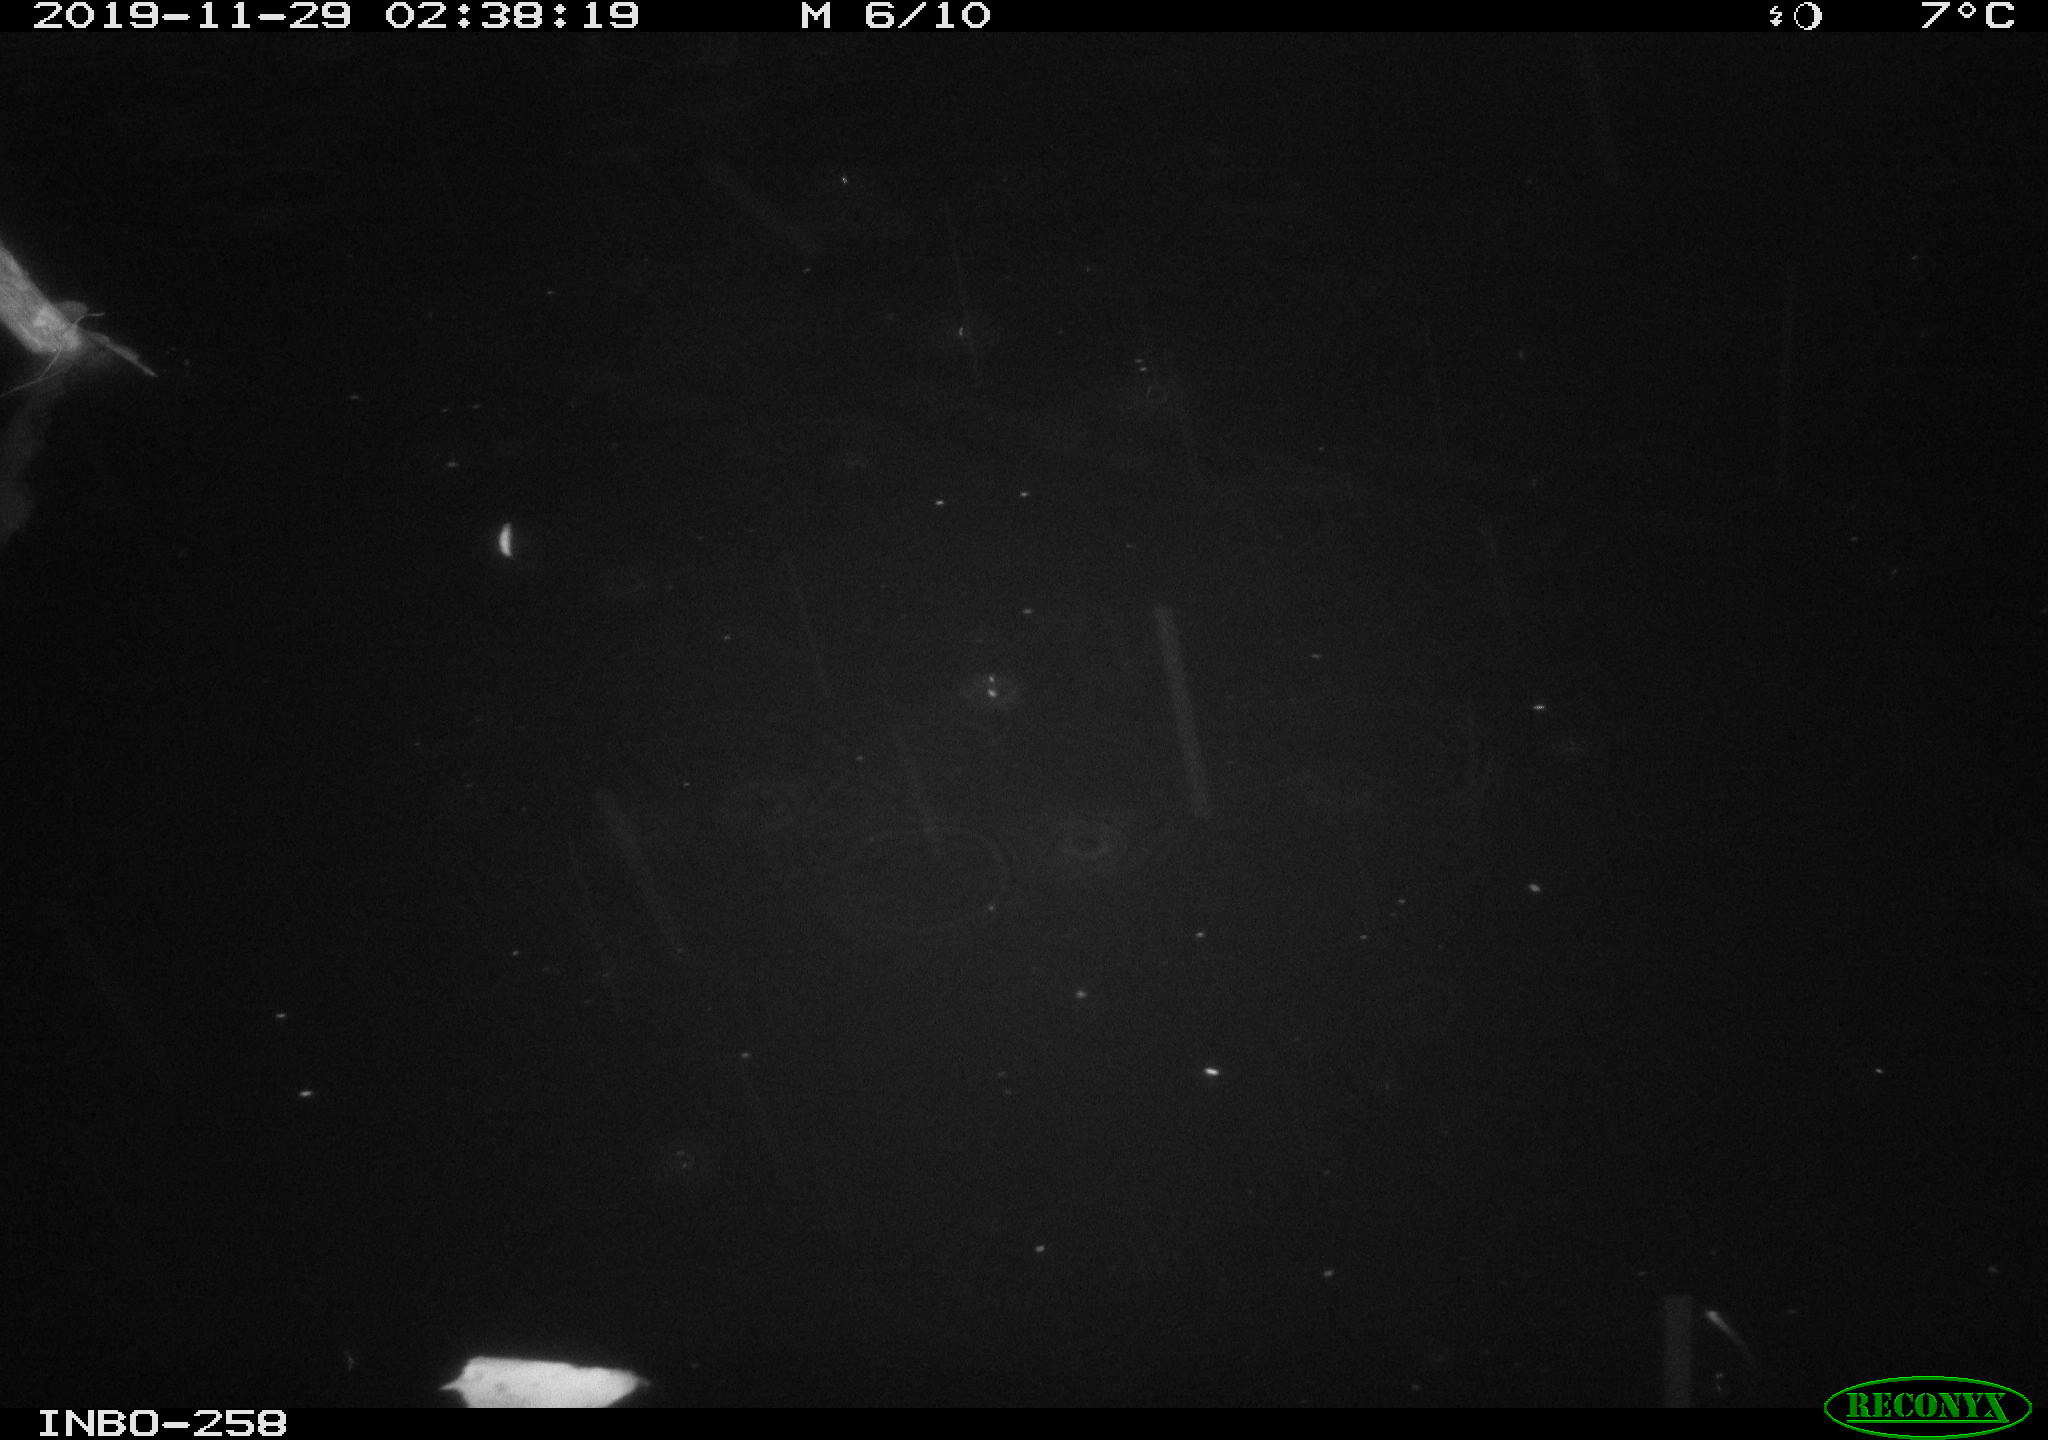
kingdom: Animalia
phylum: Chordata
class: Aves
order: Anseriformes
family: Anatidae
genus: Anas
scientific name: Anas platyrhynchos
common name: Mallard
